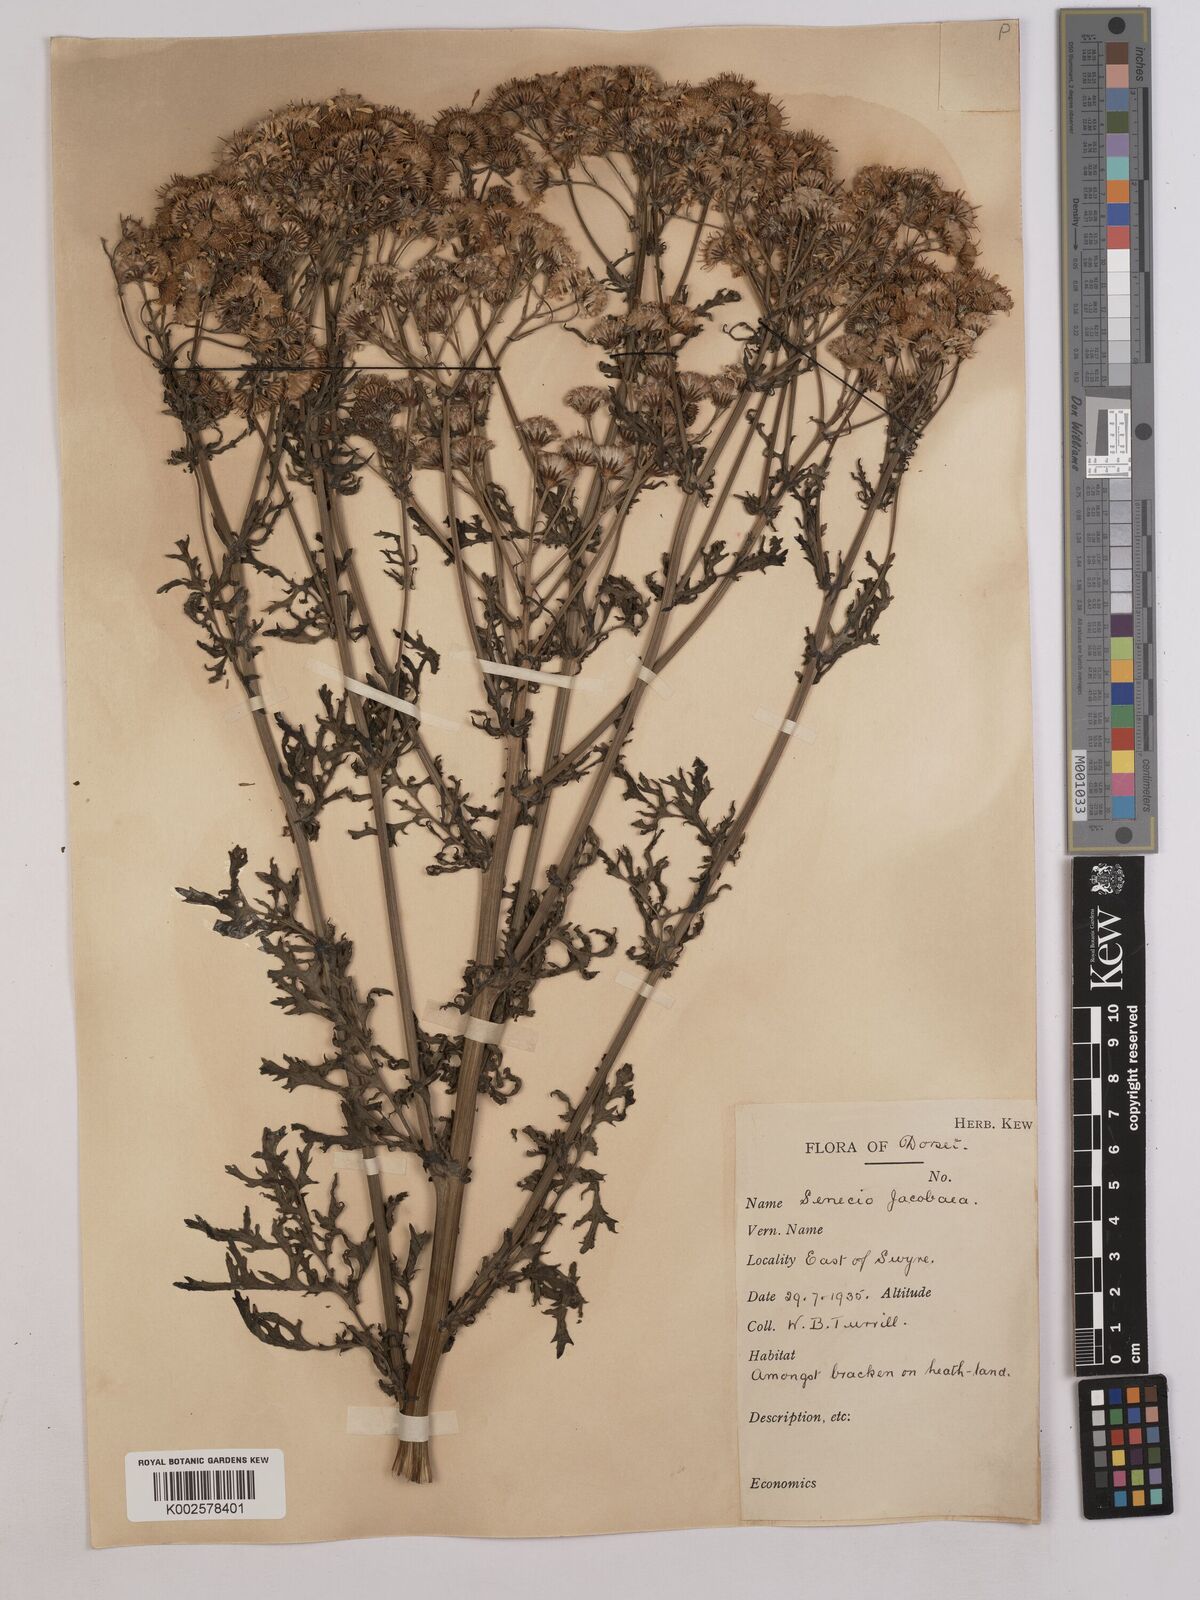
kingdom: Plantae
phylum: Tracheophyta
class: Magnoliopsida
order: Asterales
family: Asteraceae
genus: Jacobaea
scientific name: Jacobaea vulgaris
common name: Stinking willie
